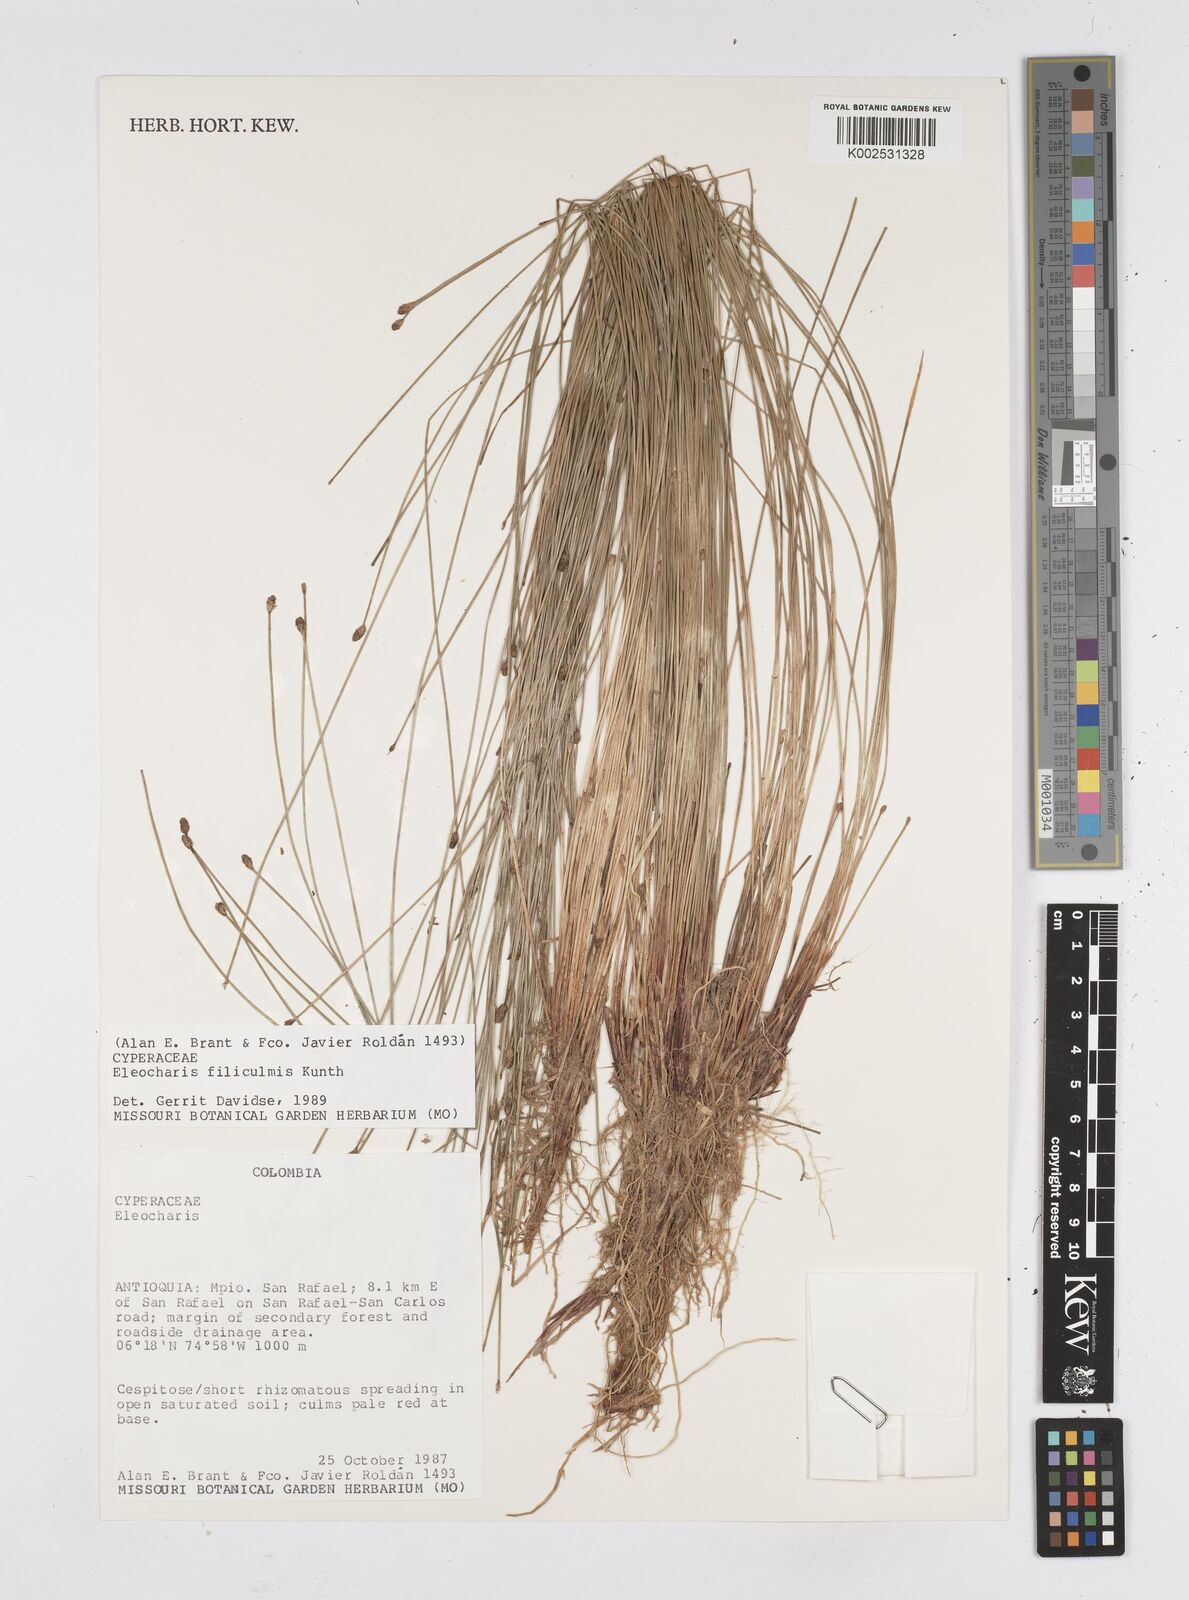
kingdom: Plantae
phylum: Tracheophyta
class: Liliopsida
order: Poales
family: Cyperaceae
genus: Eleocharis
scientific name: Eleocharis filiculmis
